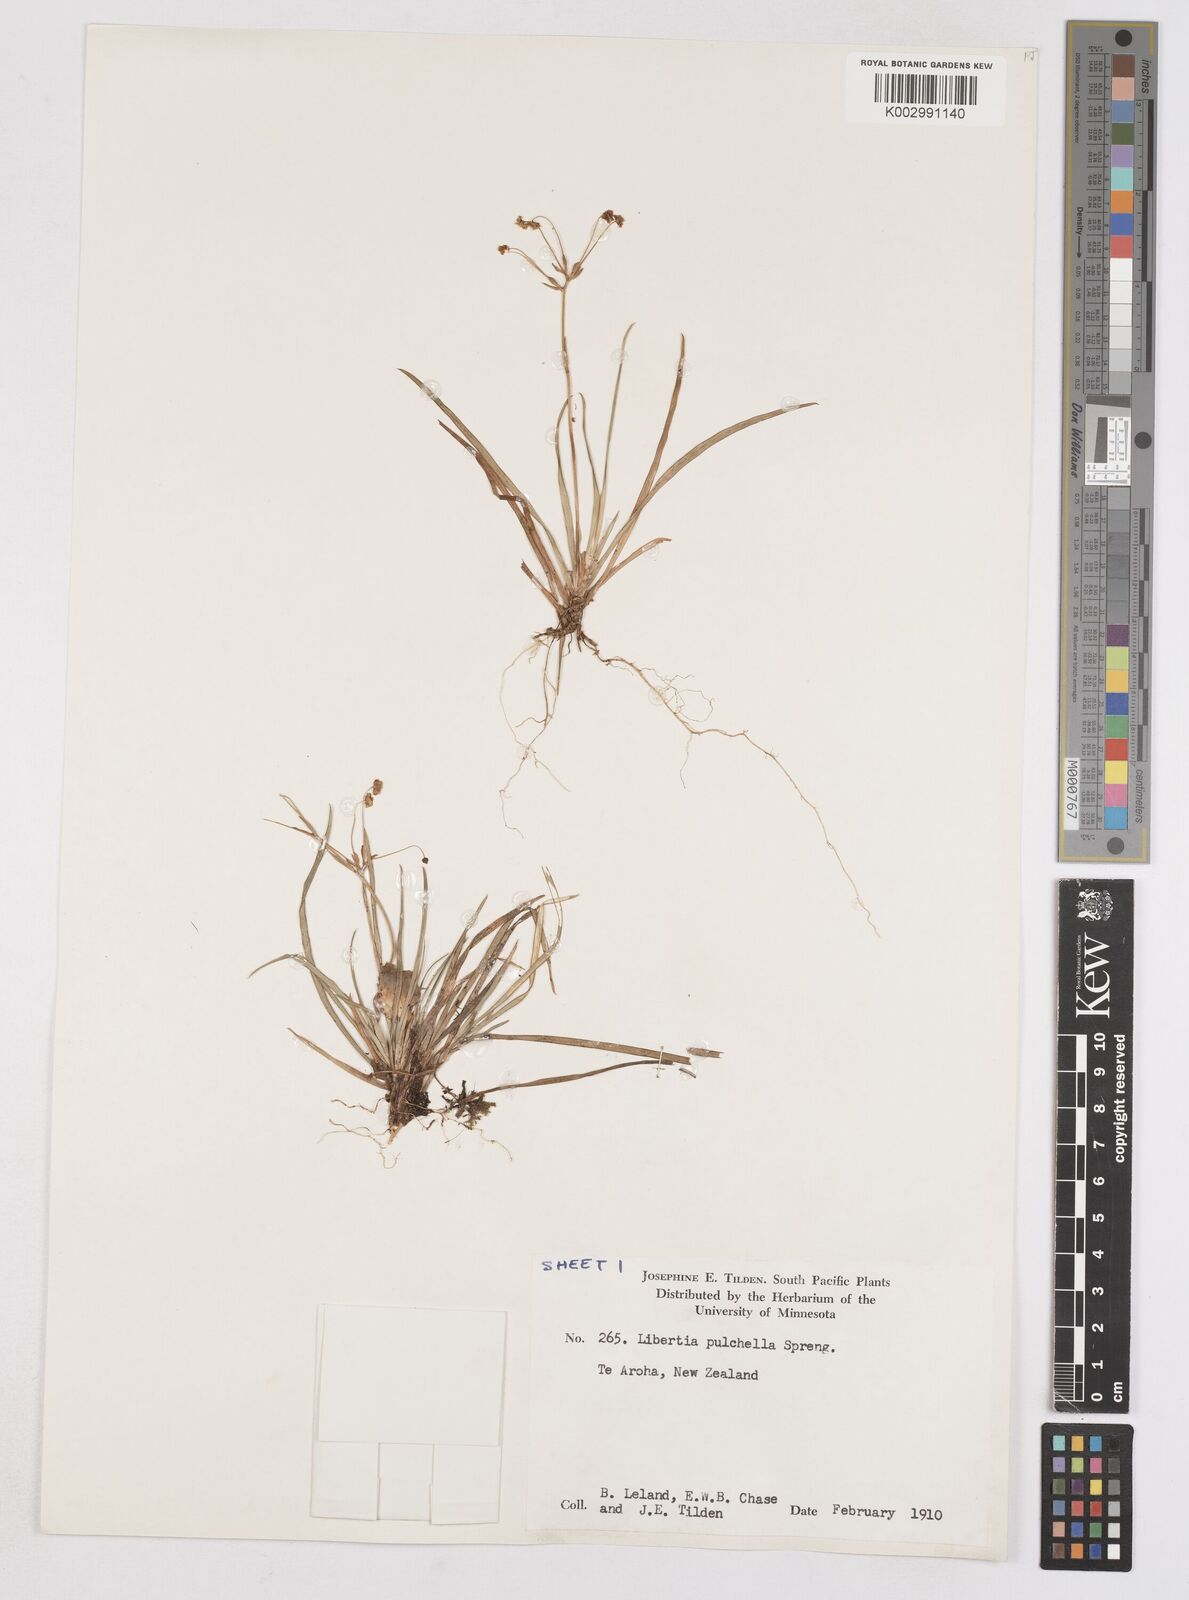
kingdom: Plantae
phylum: Tracheophyta
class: Liliopsida
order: Asparagales
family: Iridaceae
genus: Libertia
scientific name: Libertia pulchella
